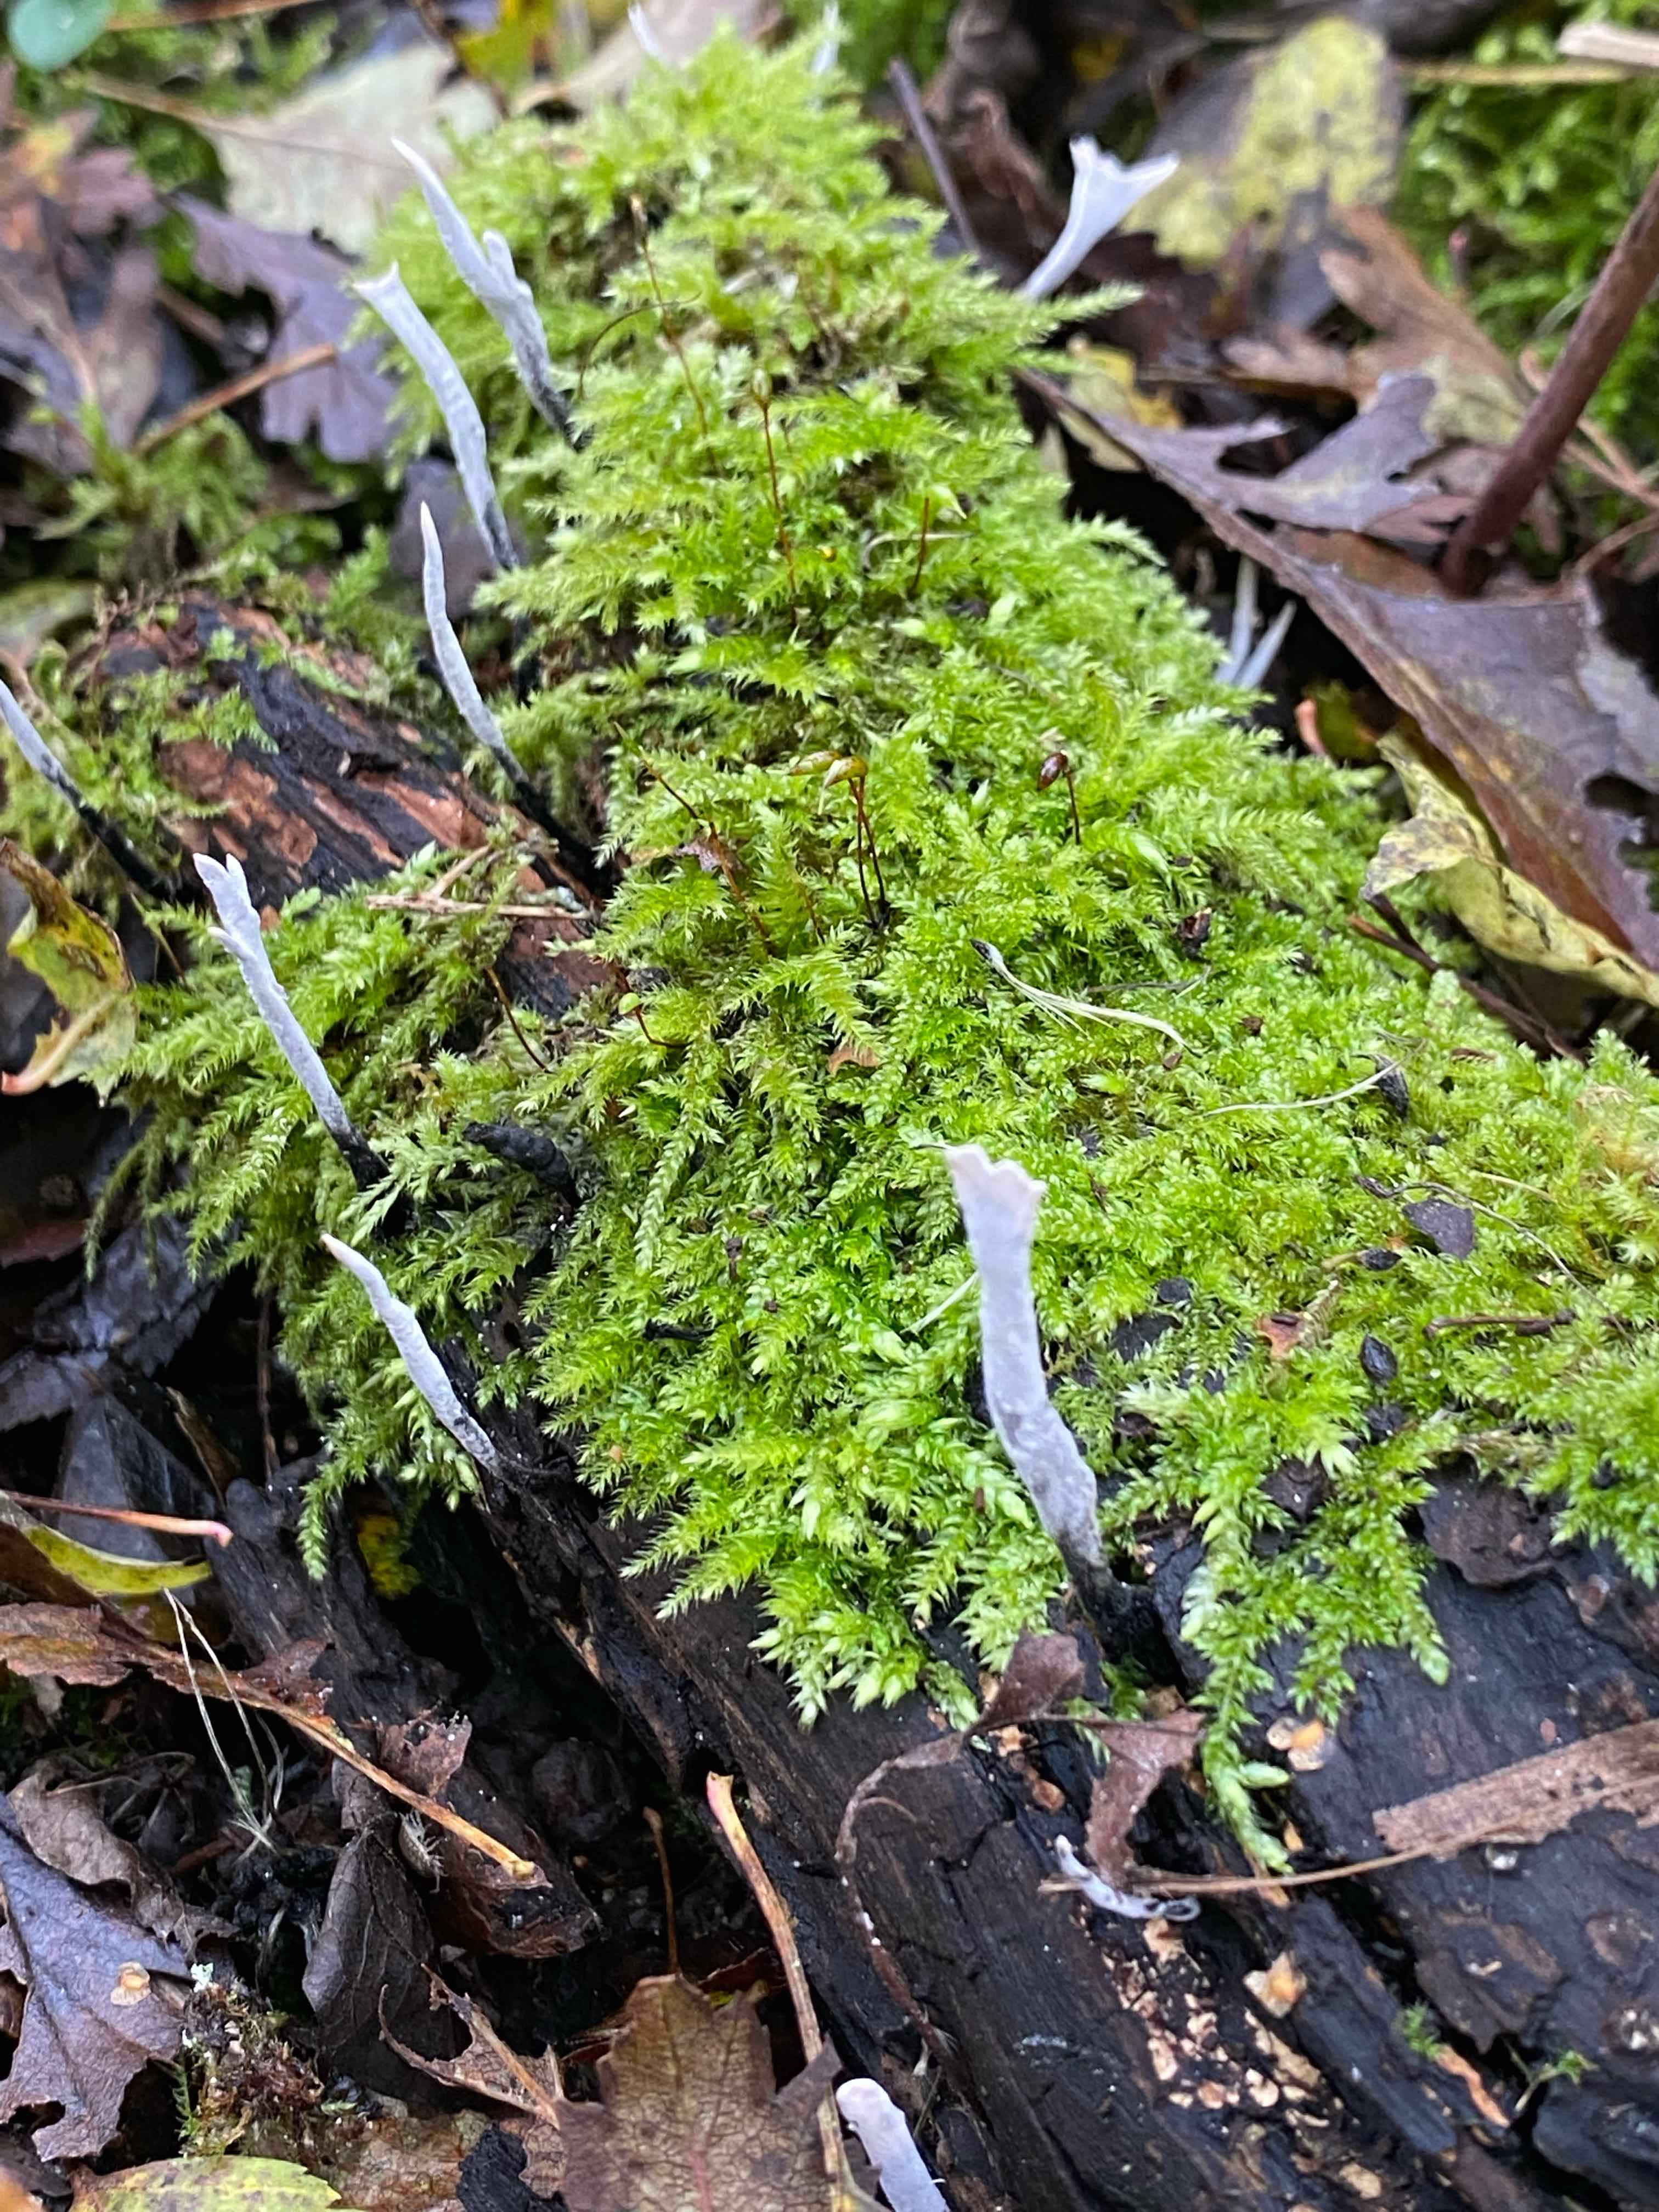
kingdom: Fungi
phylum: Ascomycota
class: Sordariomycetes
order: Xylariales
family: Xylariaceae
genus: Xylaria
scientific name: Xylaria hypoxylon
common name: grenet stødsvamp
